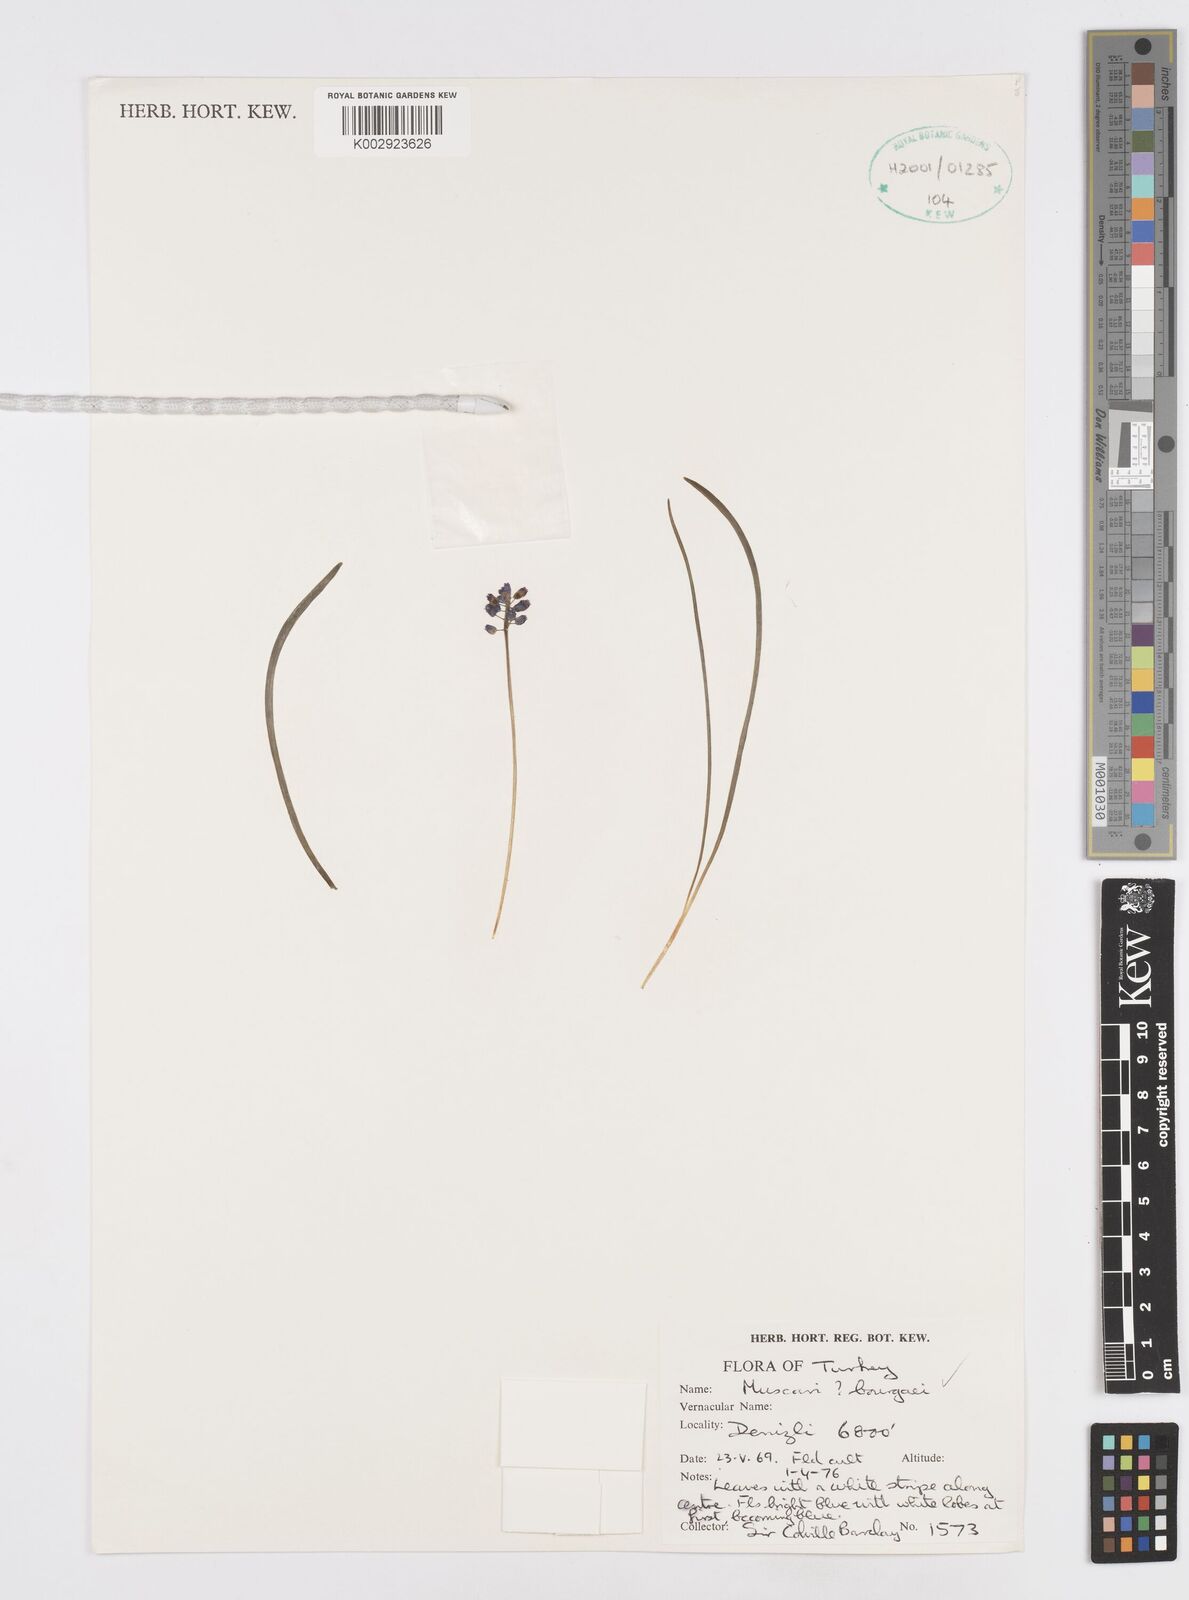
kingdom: Plantae
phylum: Tracheophyta
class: Liliopsida
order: Asparagales
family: Asparagaceae
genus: Muscari
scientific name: Muscari bourgaei
